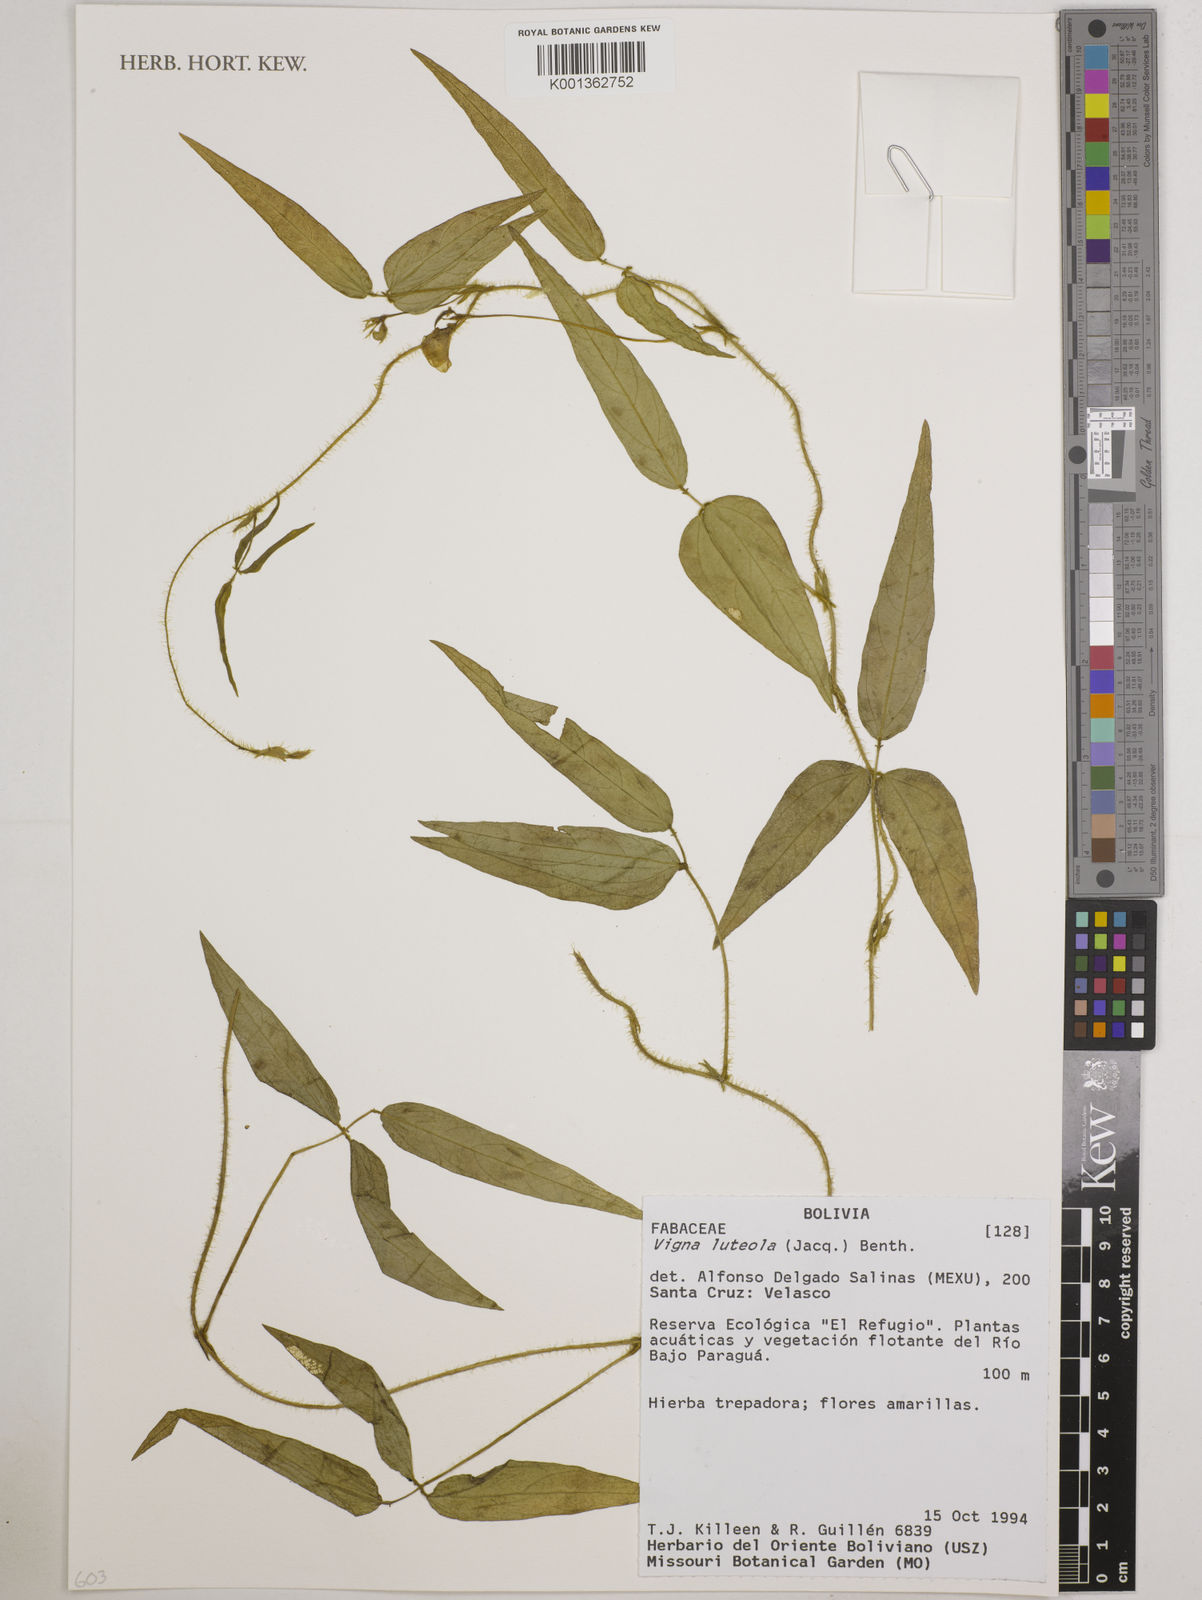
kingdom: Plantae
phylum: Tracheophyta
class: Magnoliopsida
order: Fabales
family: Fabaceae
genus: Vigna
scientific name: Vigna luteola
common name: Hairypod cowpea
